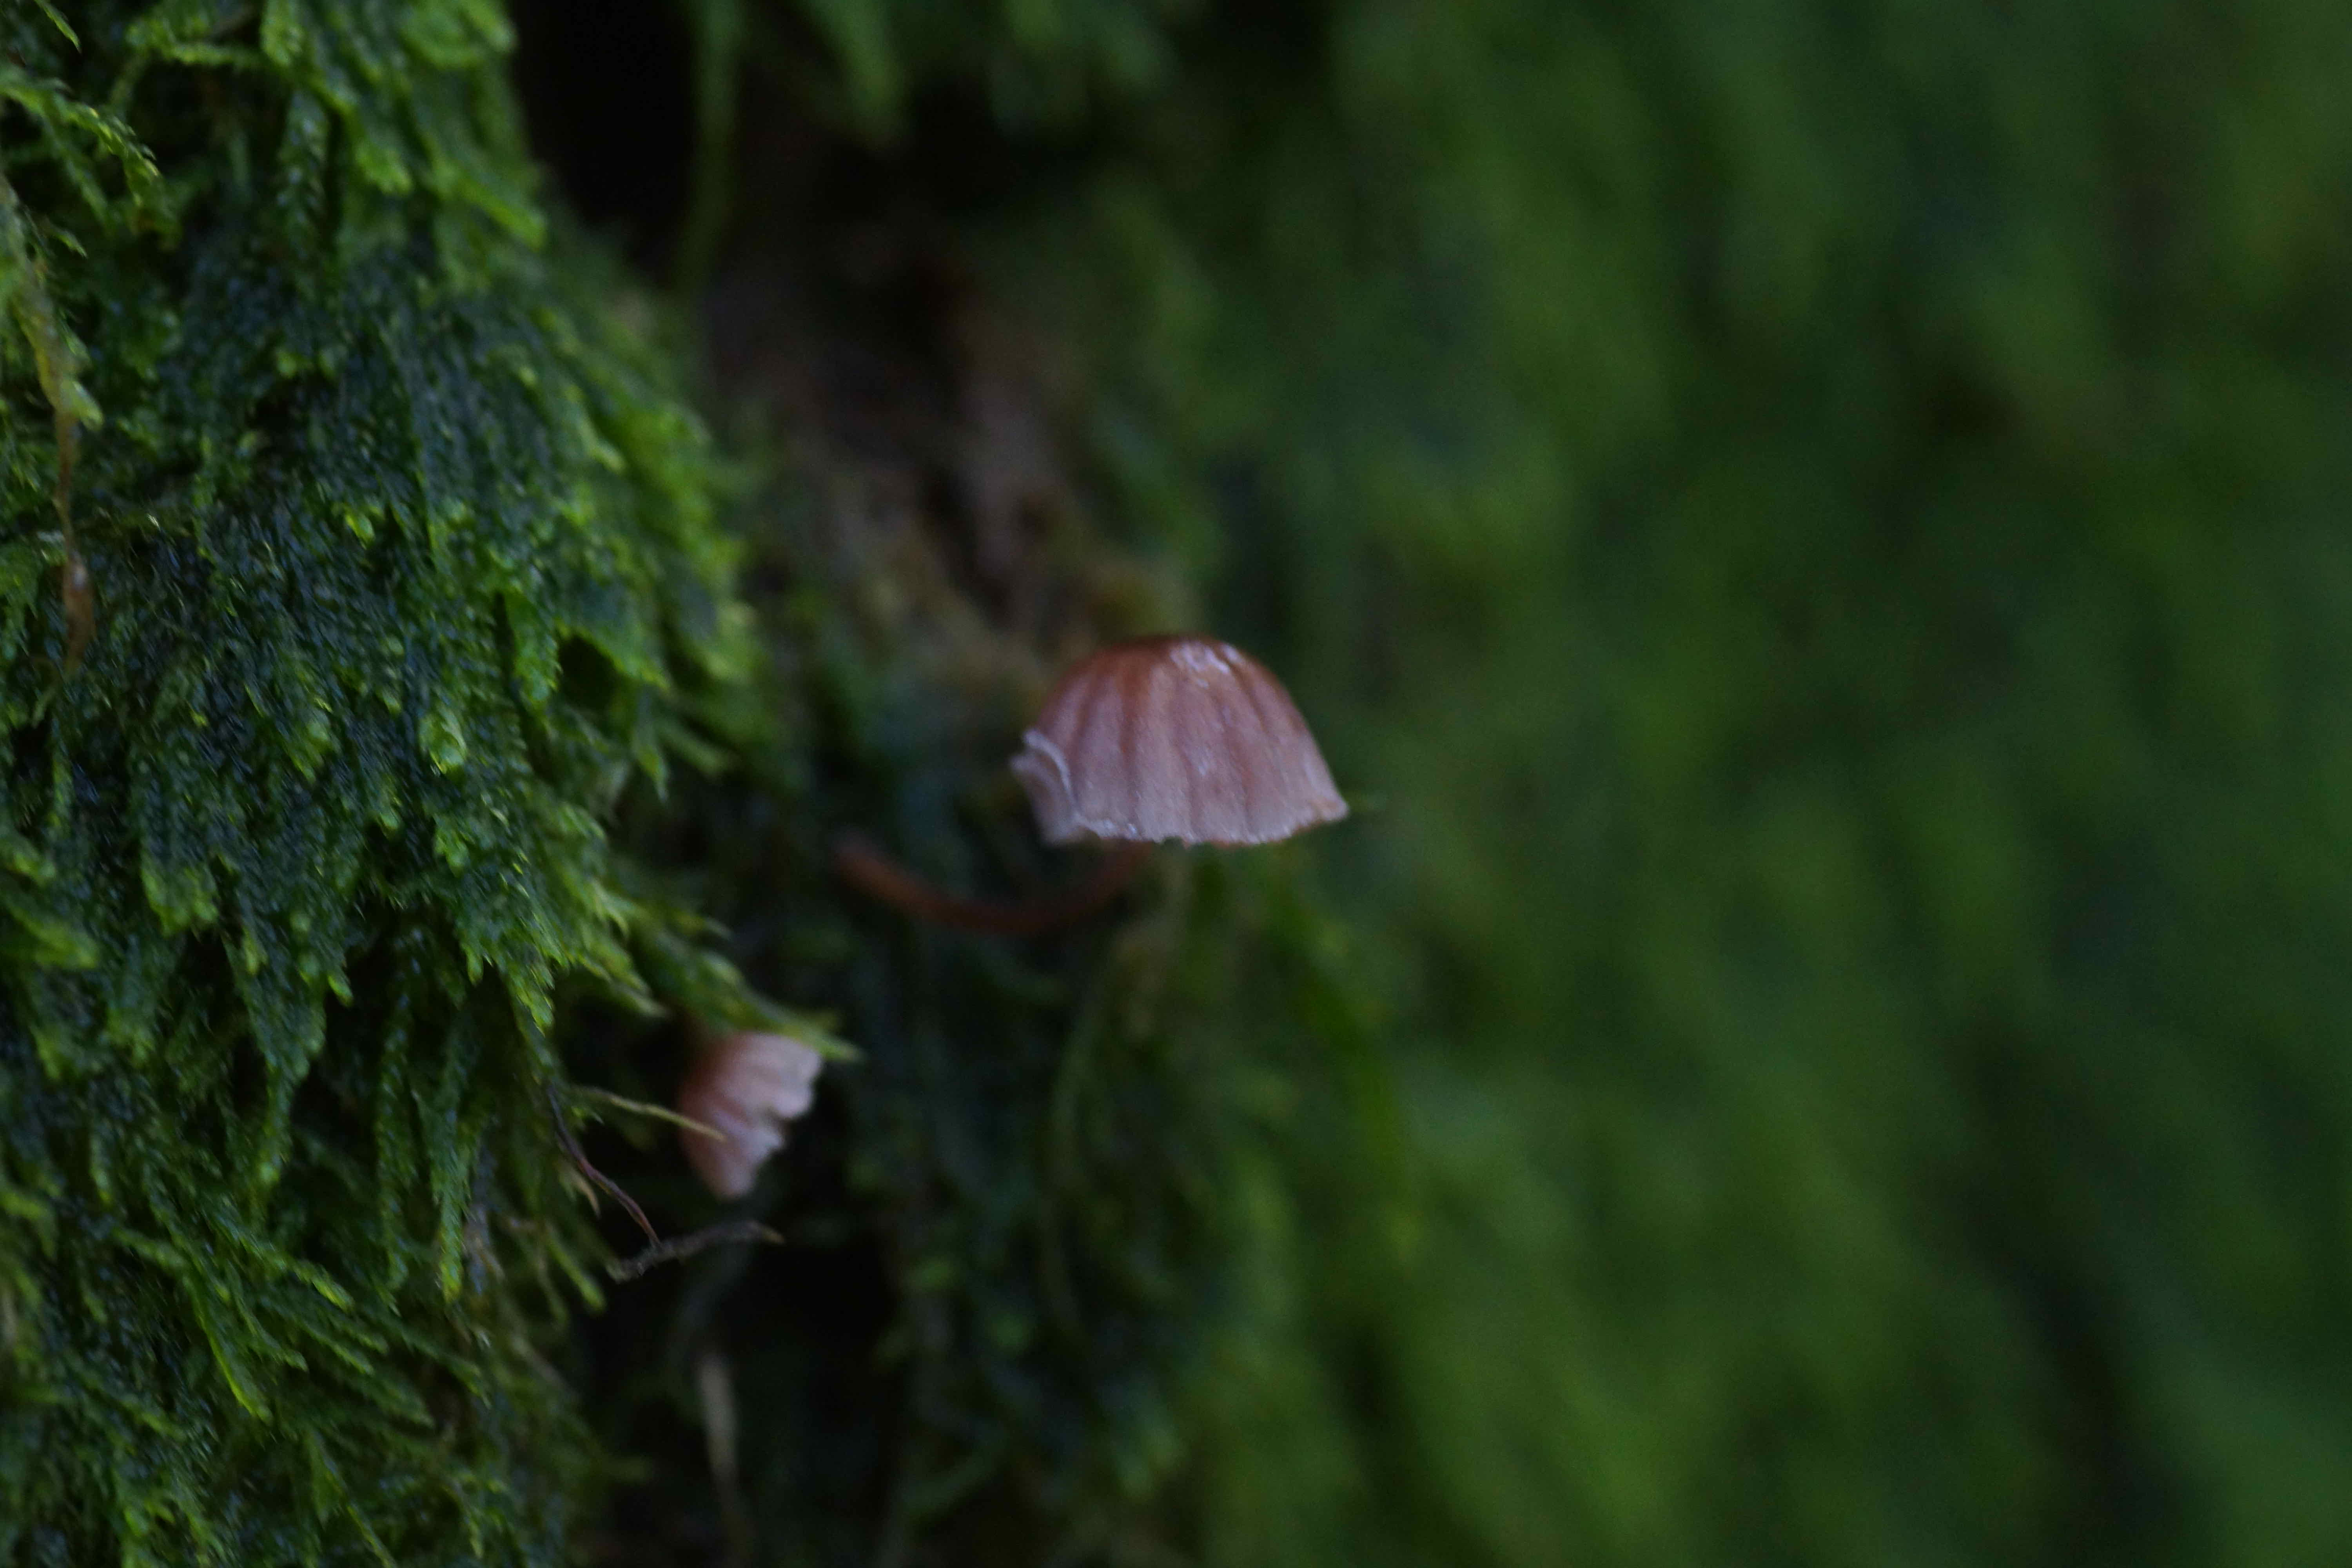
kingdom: Fungi
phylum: Basidiomycota
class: Agaricomycetes
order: Agaricales
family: Mycenaceae
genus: Mycena
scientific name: Mycena meliigena
